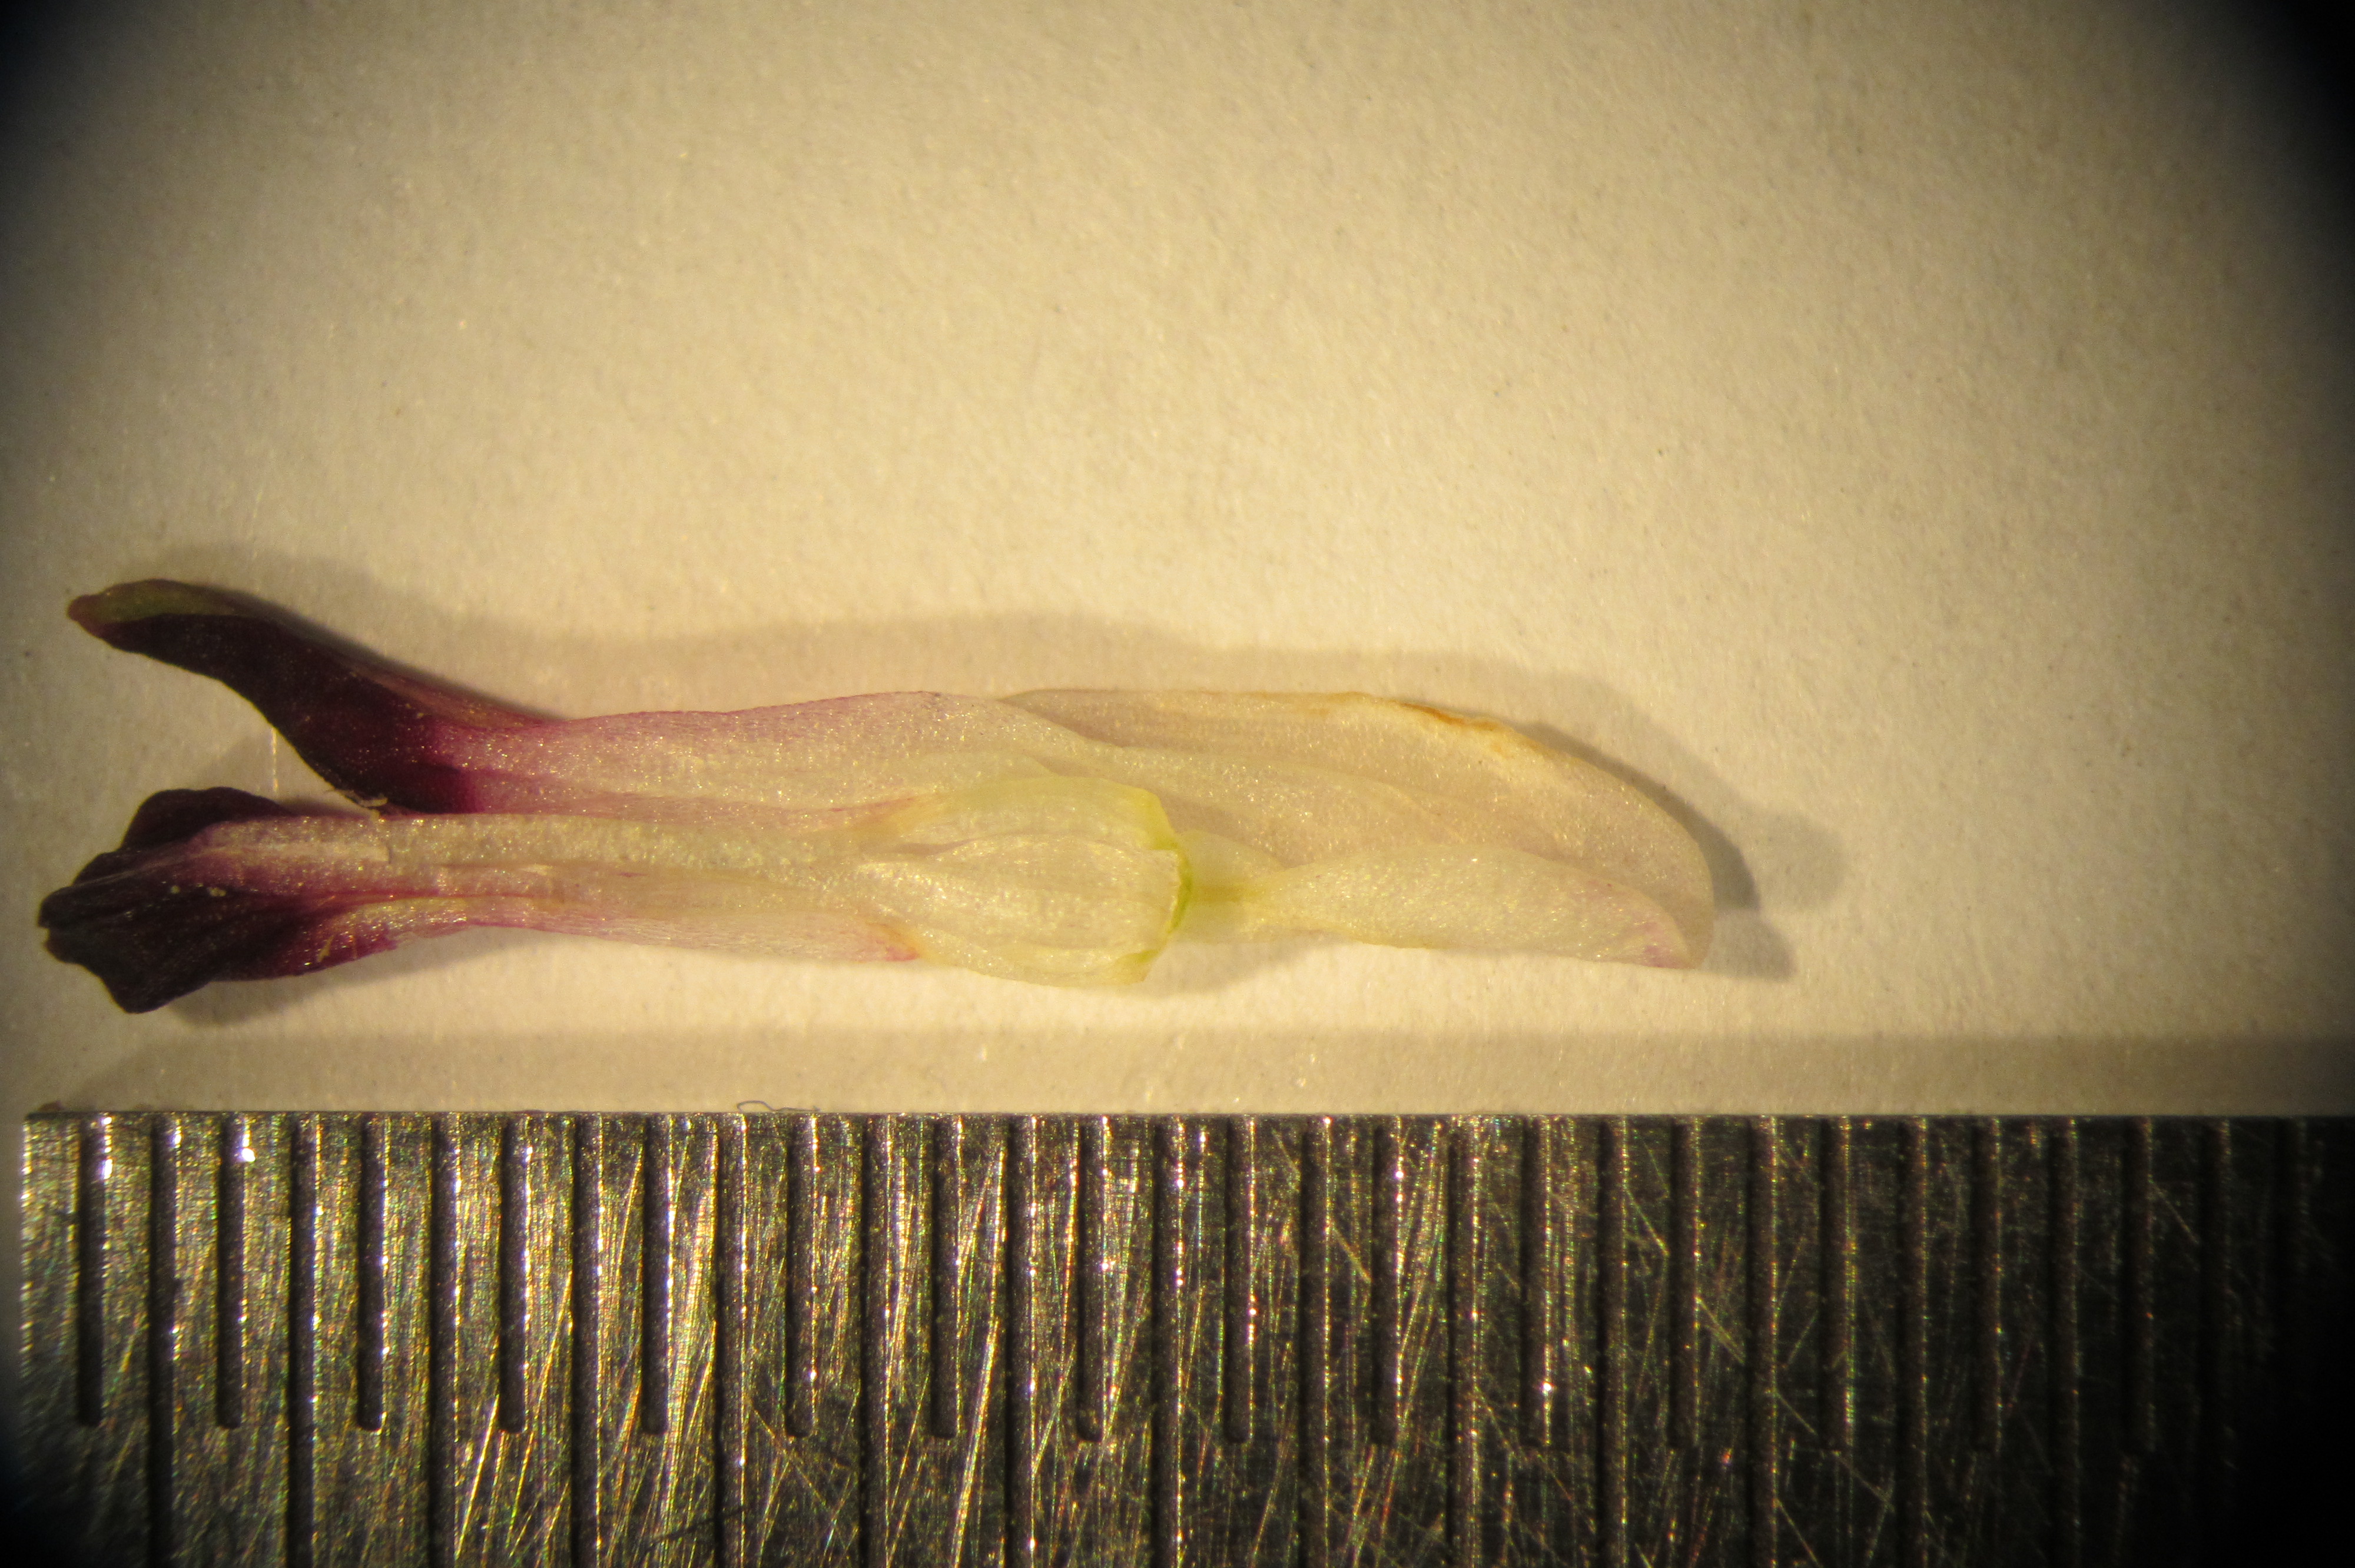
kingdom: Plantae
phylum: Tracheophyta
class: Magnoliopsida
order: Ranunculales
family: Papaveraceae
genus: Fumaria
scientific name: Fumaria capreolata
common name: White ramping-fumitory
